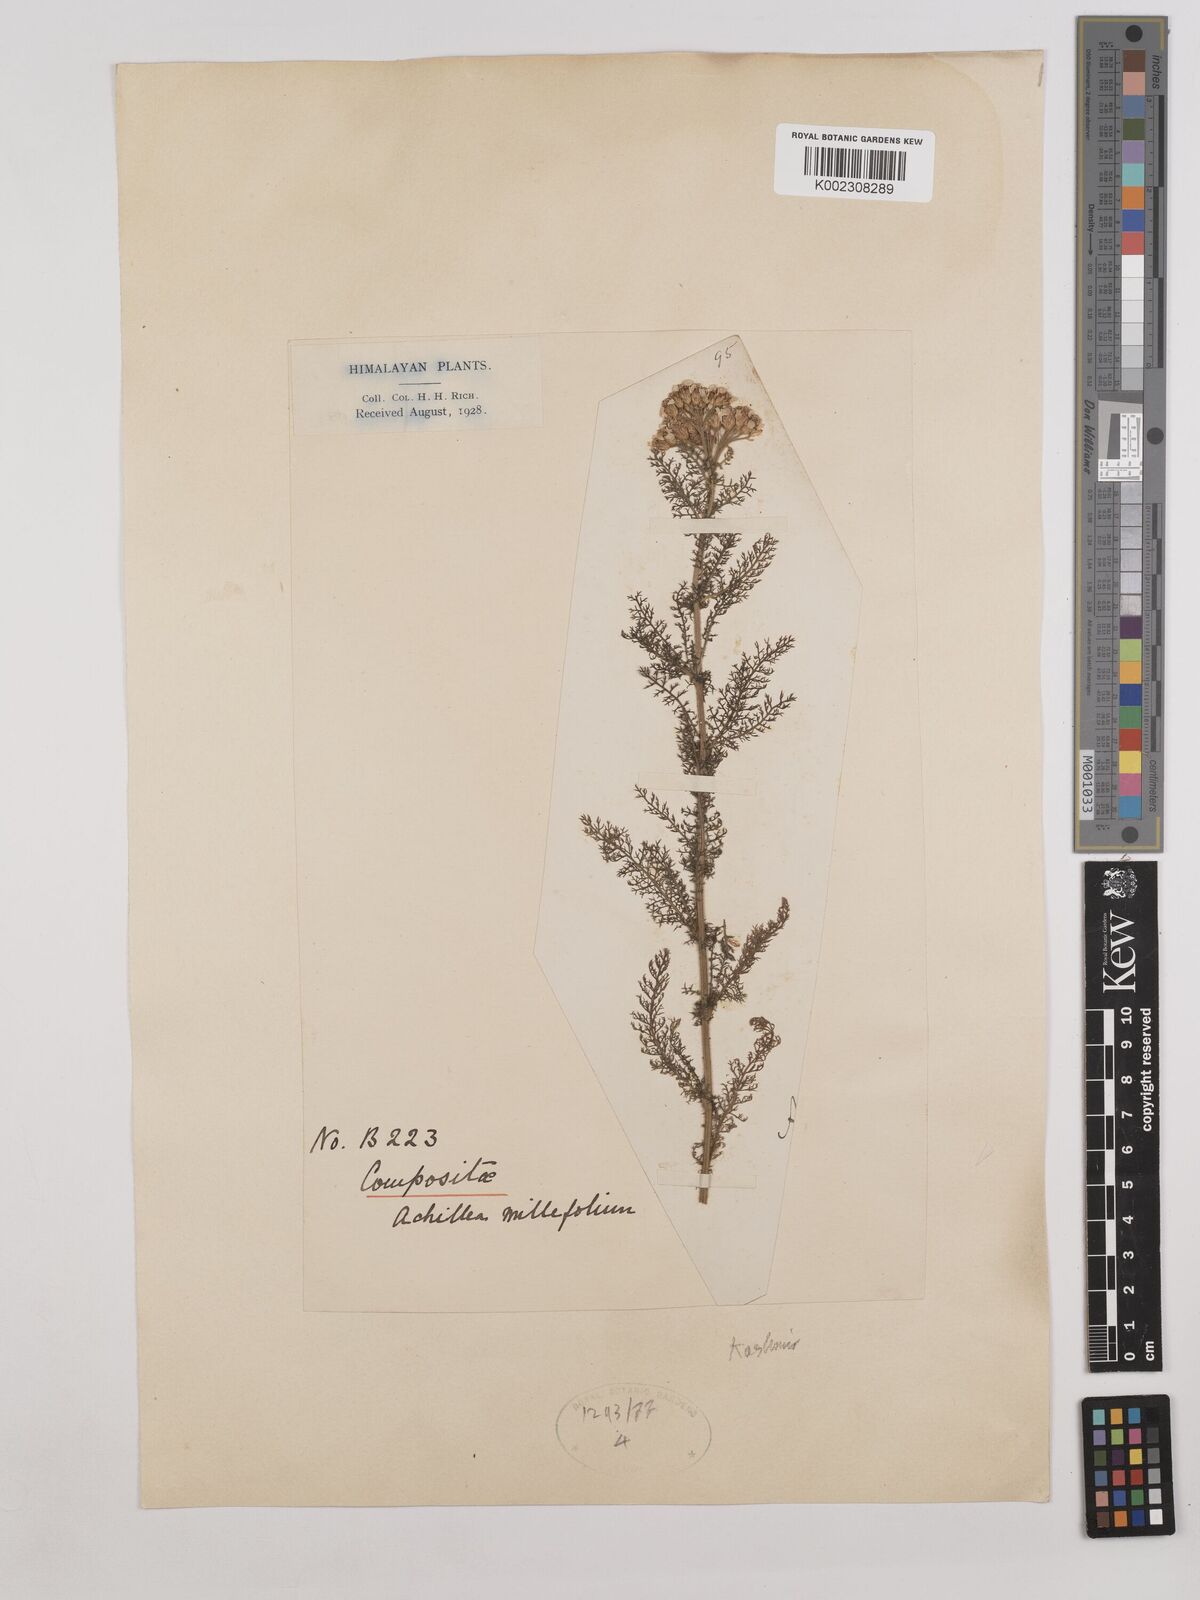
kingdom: Plantae
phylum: Tracheophyta
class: Magnoliopsida
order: Asterales
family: Asteraceae
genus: Achillea
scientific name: Achillea millefolium
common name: Yarrow
